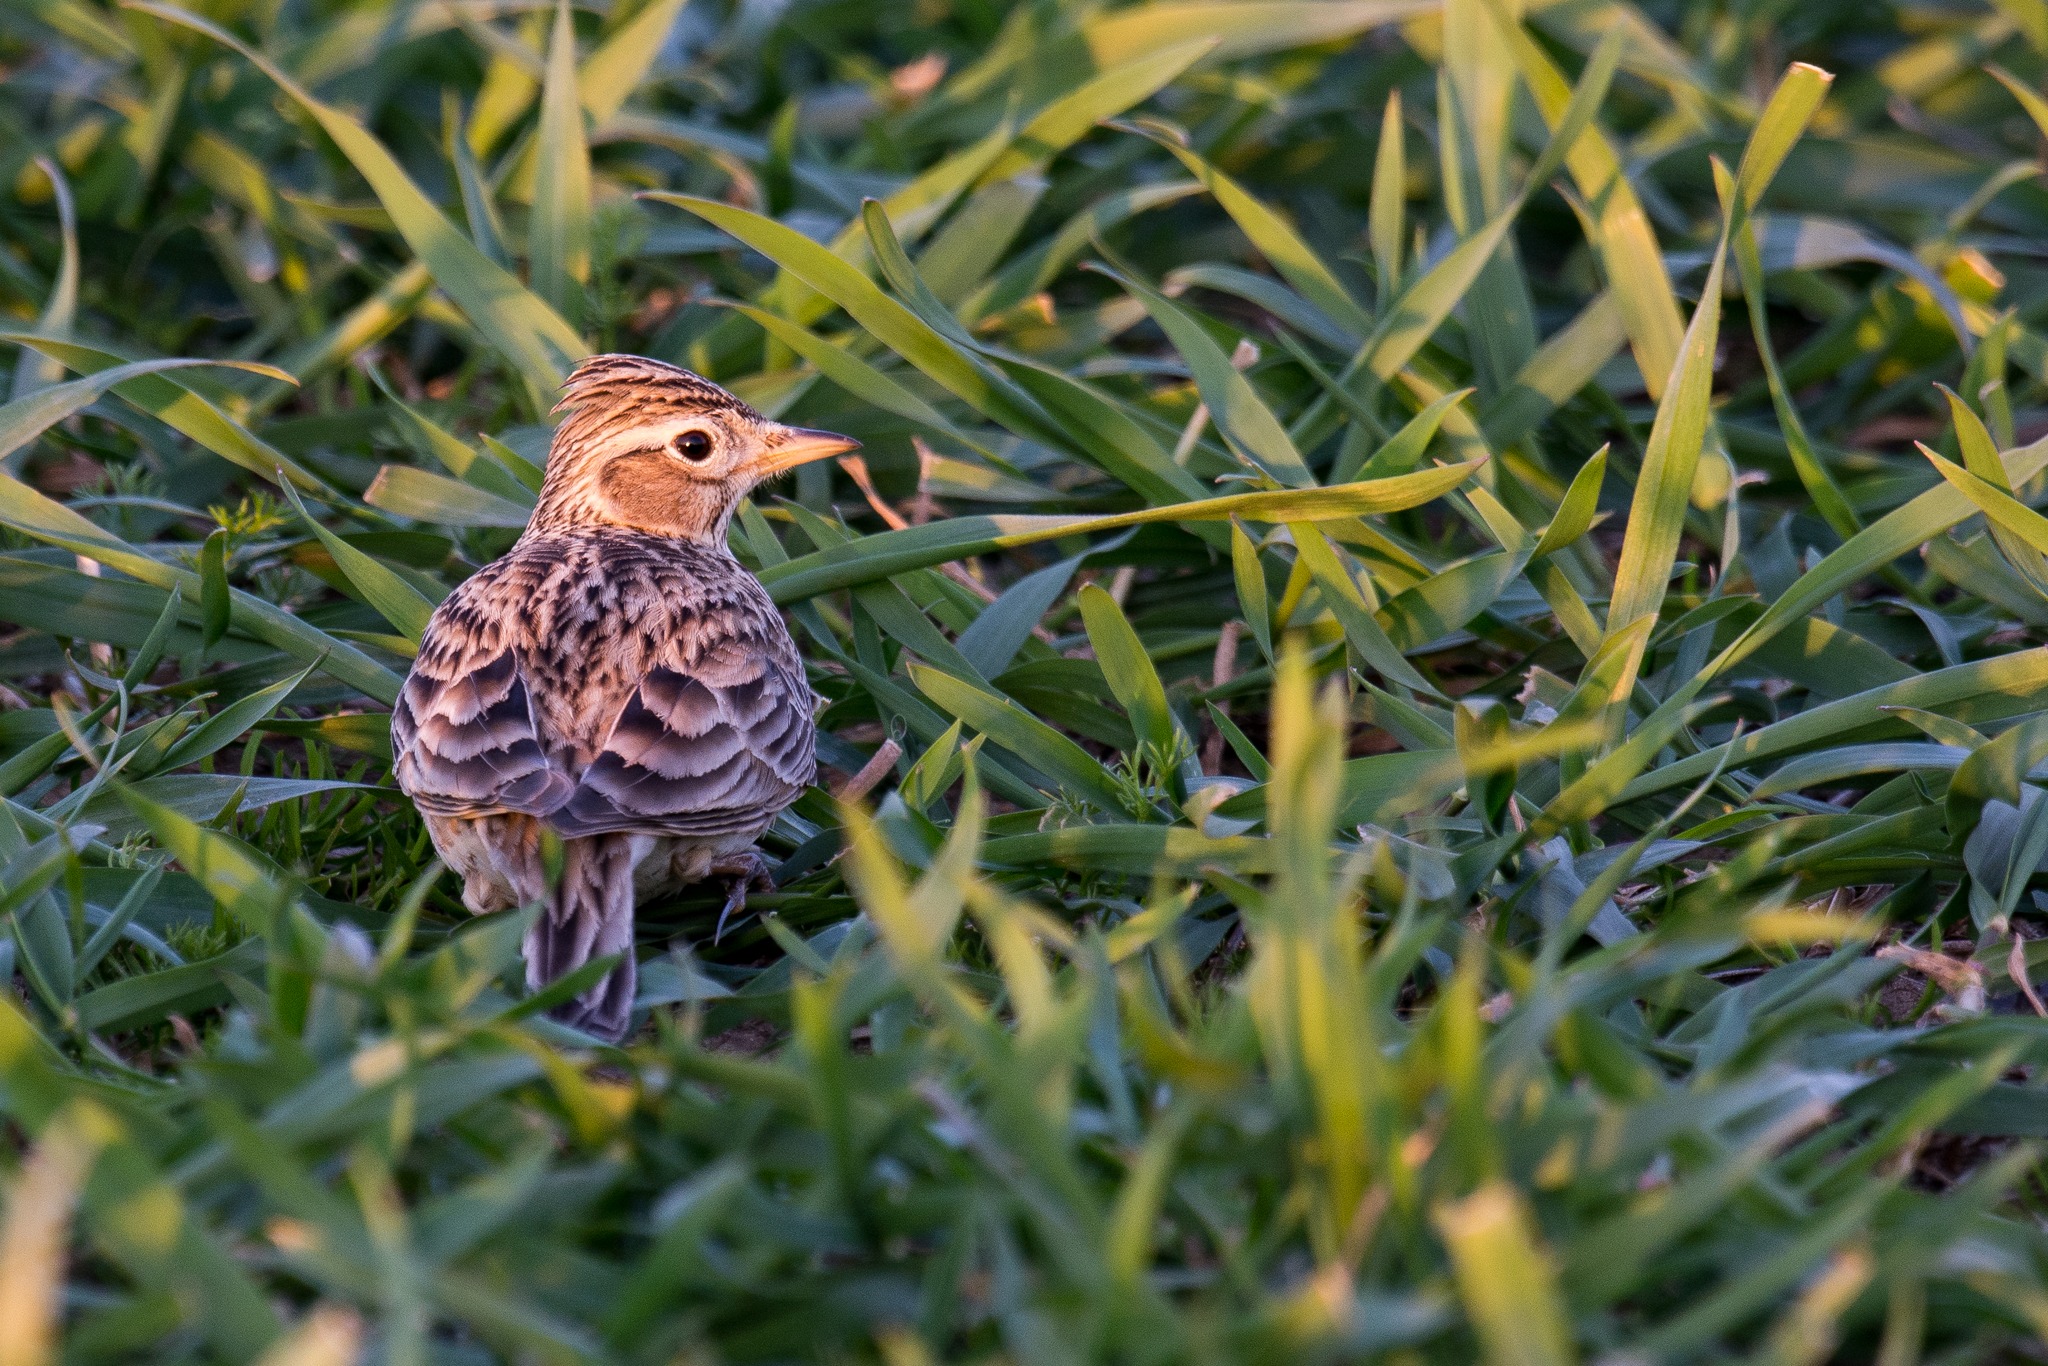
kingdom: Animalia
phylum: Chordata
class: Aves
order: Passeriformes
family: Alaudidae
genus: Alauda
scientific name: Alauda arvensis
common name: Sanglærke
